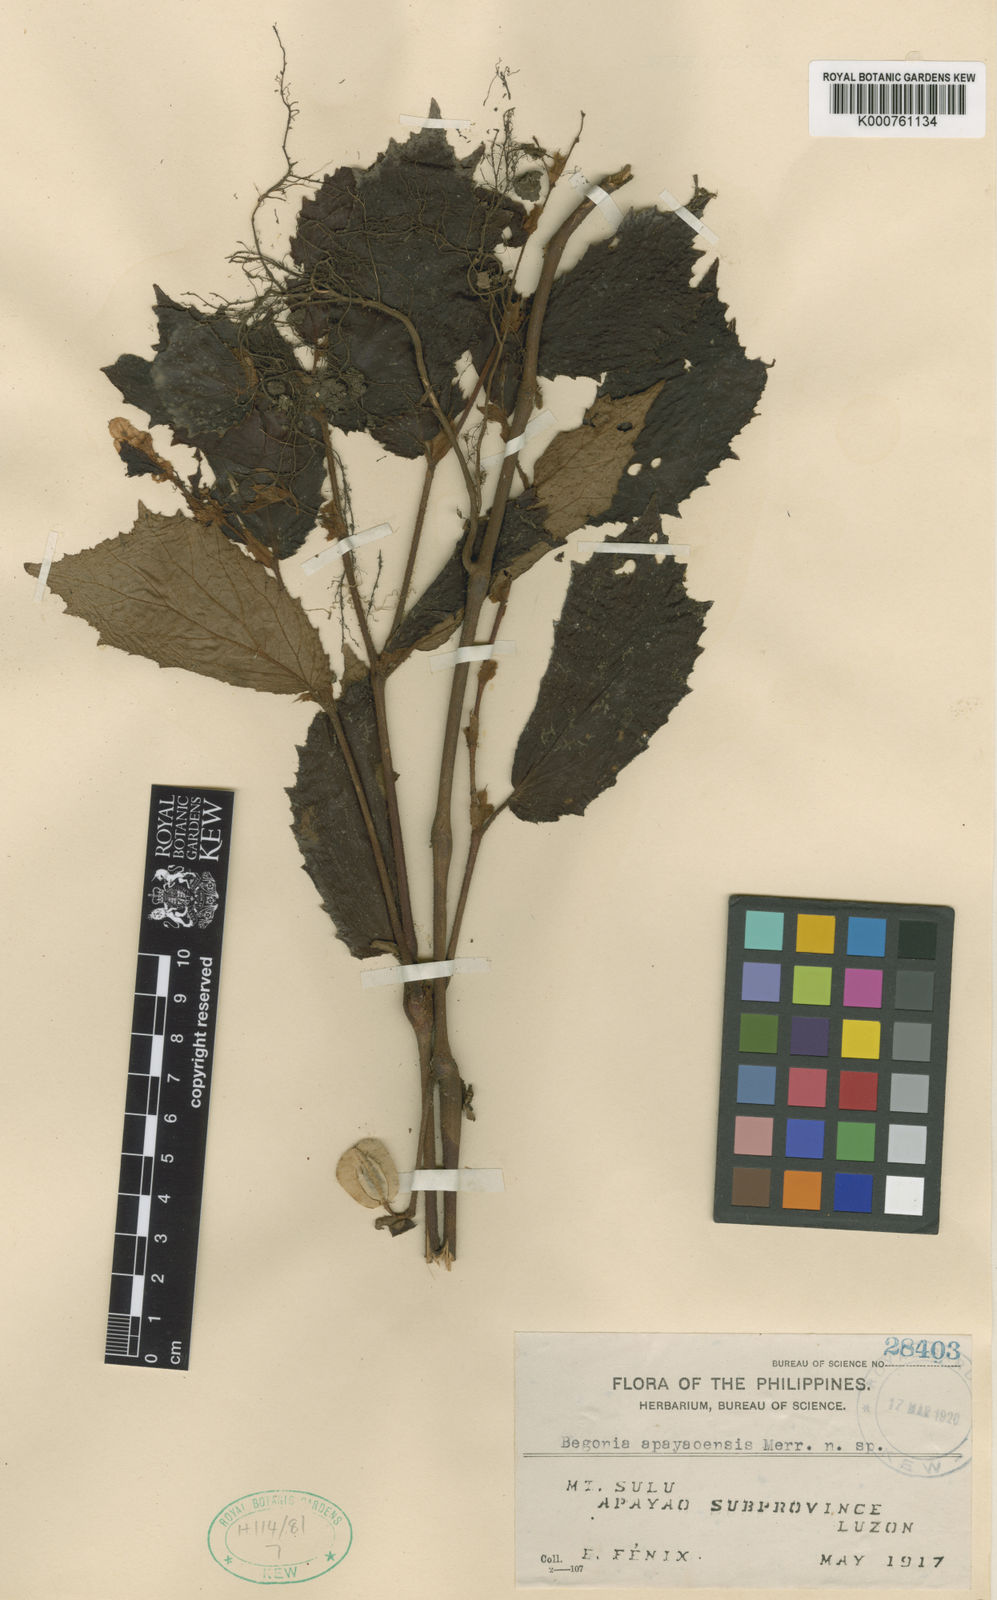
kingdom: Plantae
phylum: Tracheophyta
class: Magnoliopsida
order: Cucurbitales
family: Begoniaceae
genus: Begonia
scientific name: Begonia apayaoensis
